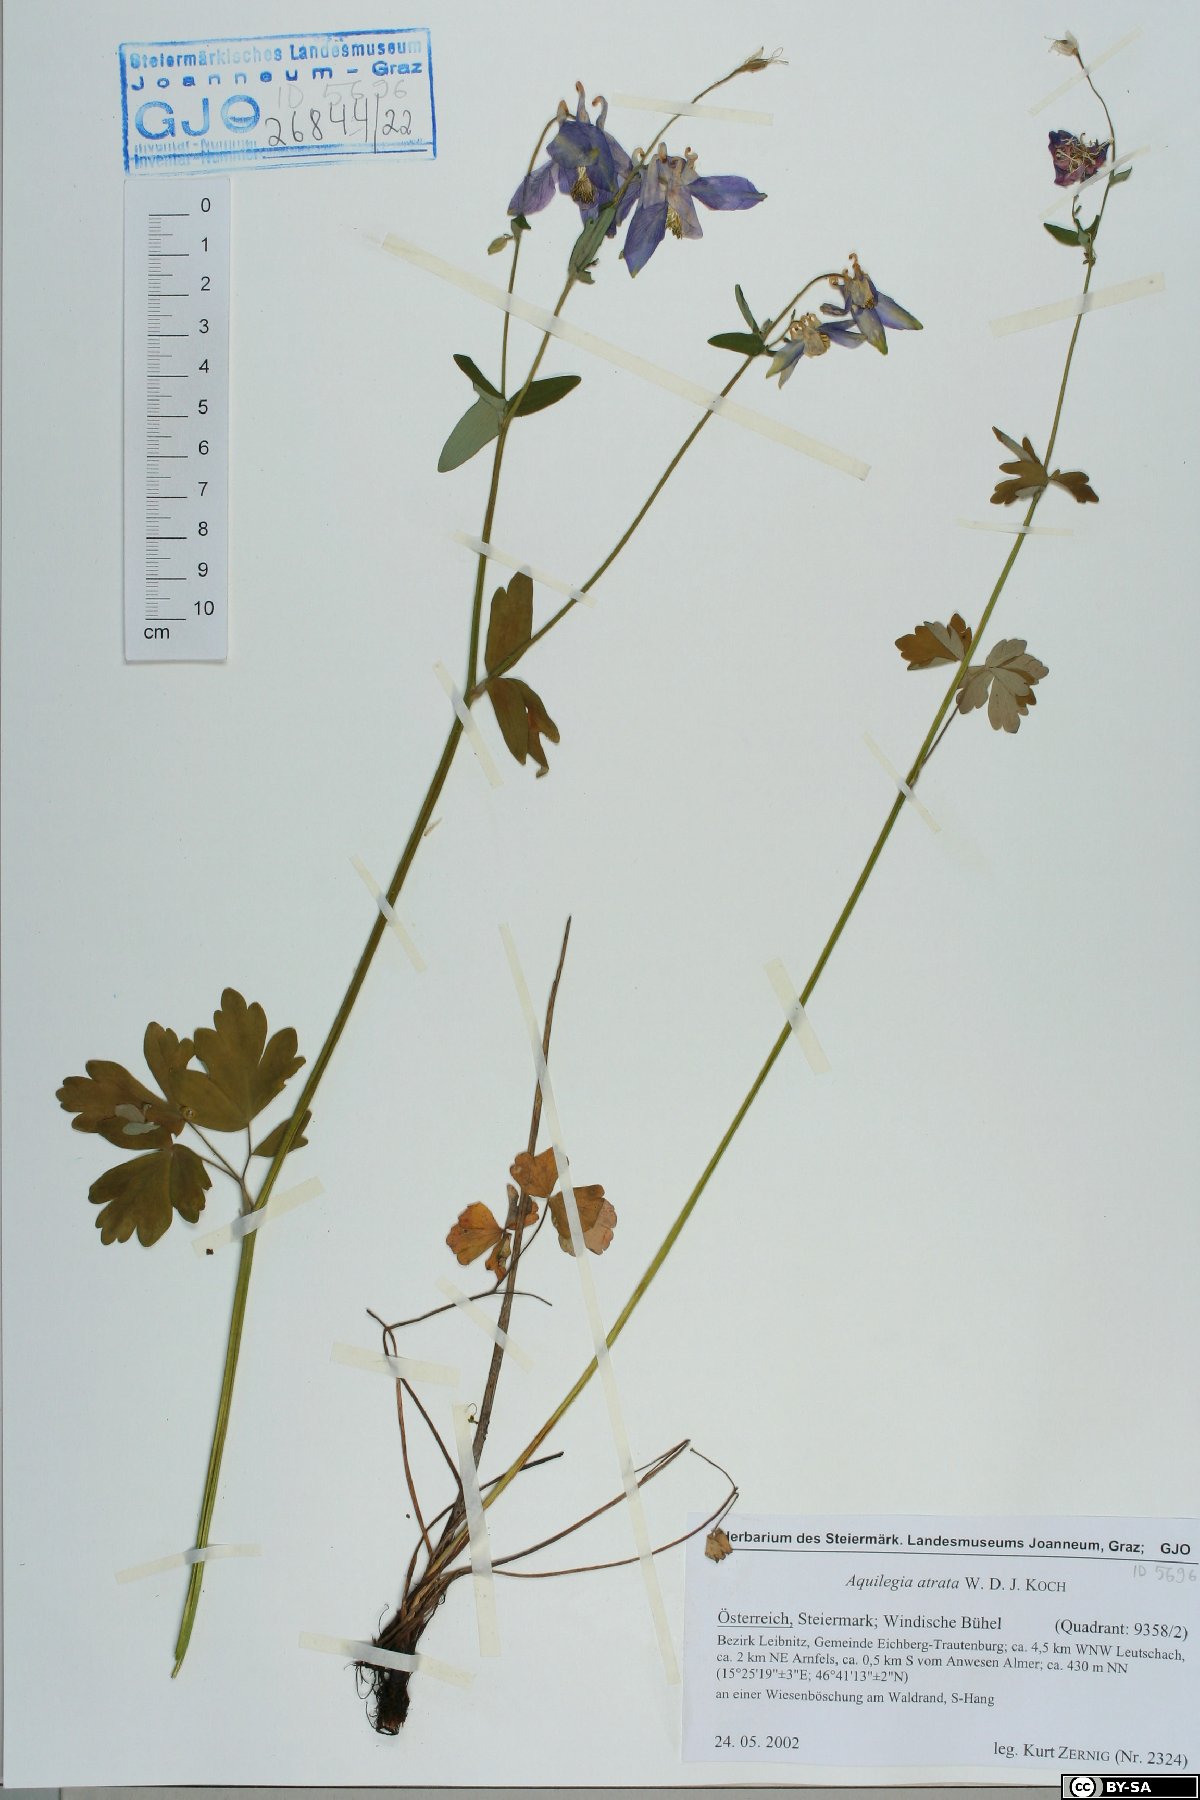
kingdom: Plantae
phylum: Tracheophyta
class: Magnoliopsida
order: Ranunculales
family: Ranunculaceae
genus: Aquilegia
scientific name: Aquilegia vulgaris
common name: Columbine
